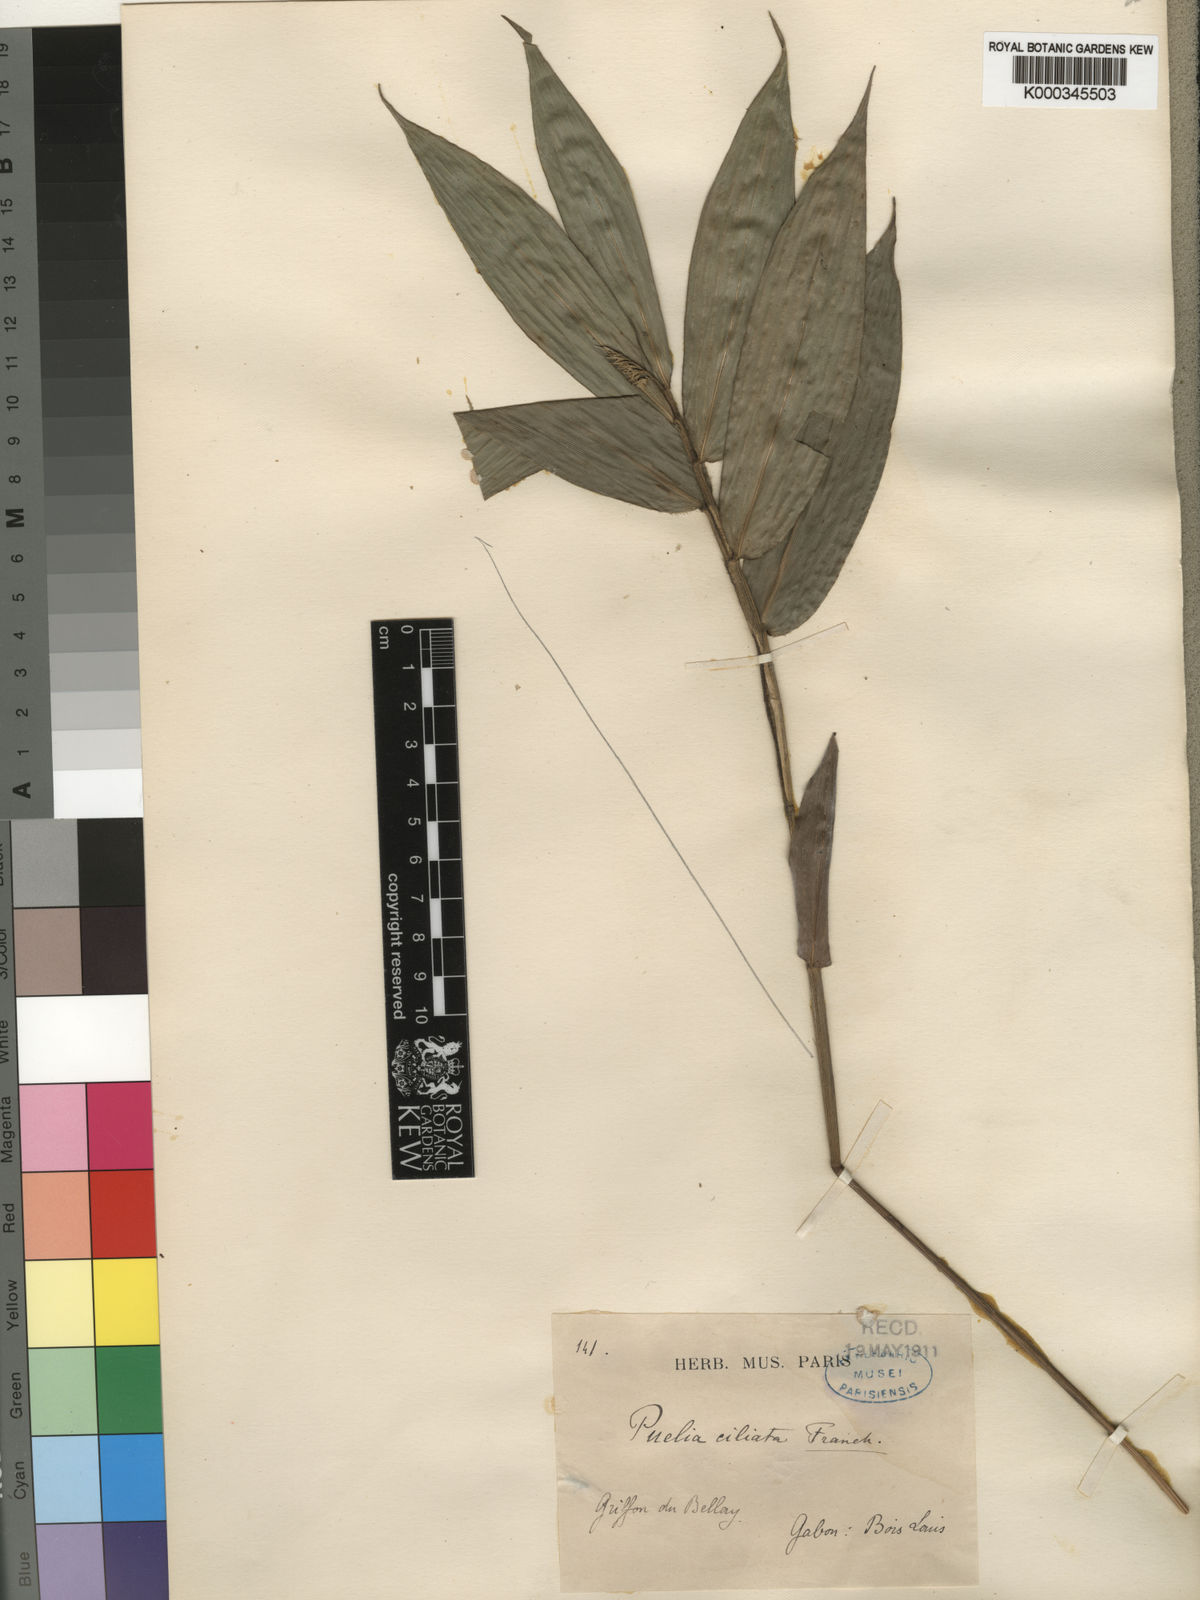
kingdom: Plantae
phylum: Tracheophyta
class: Liliopsida
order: Poales
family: Poaceae
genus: Puelia
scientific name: Puelia ciliata
